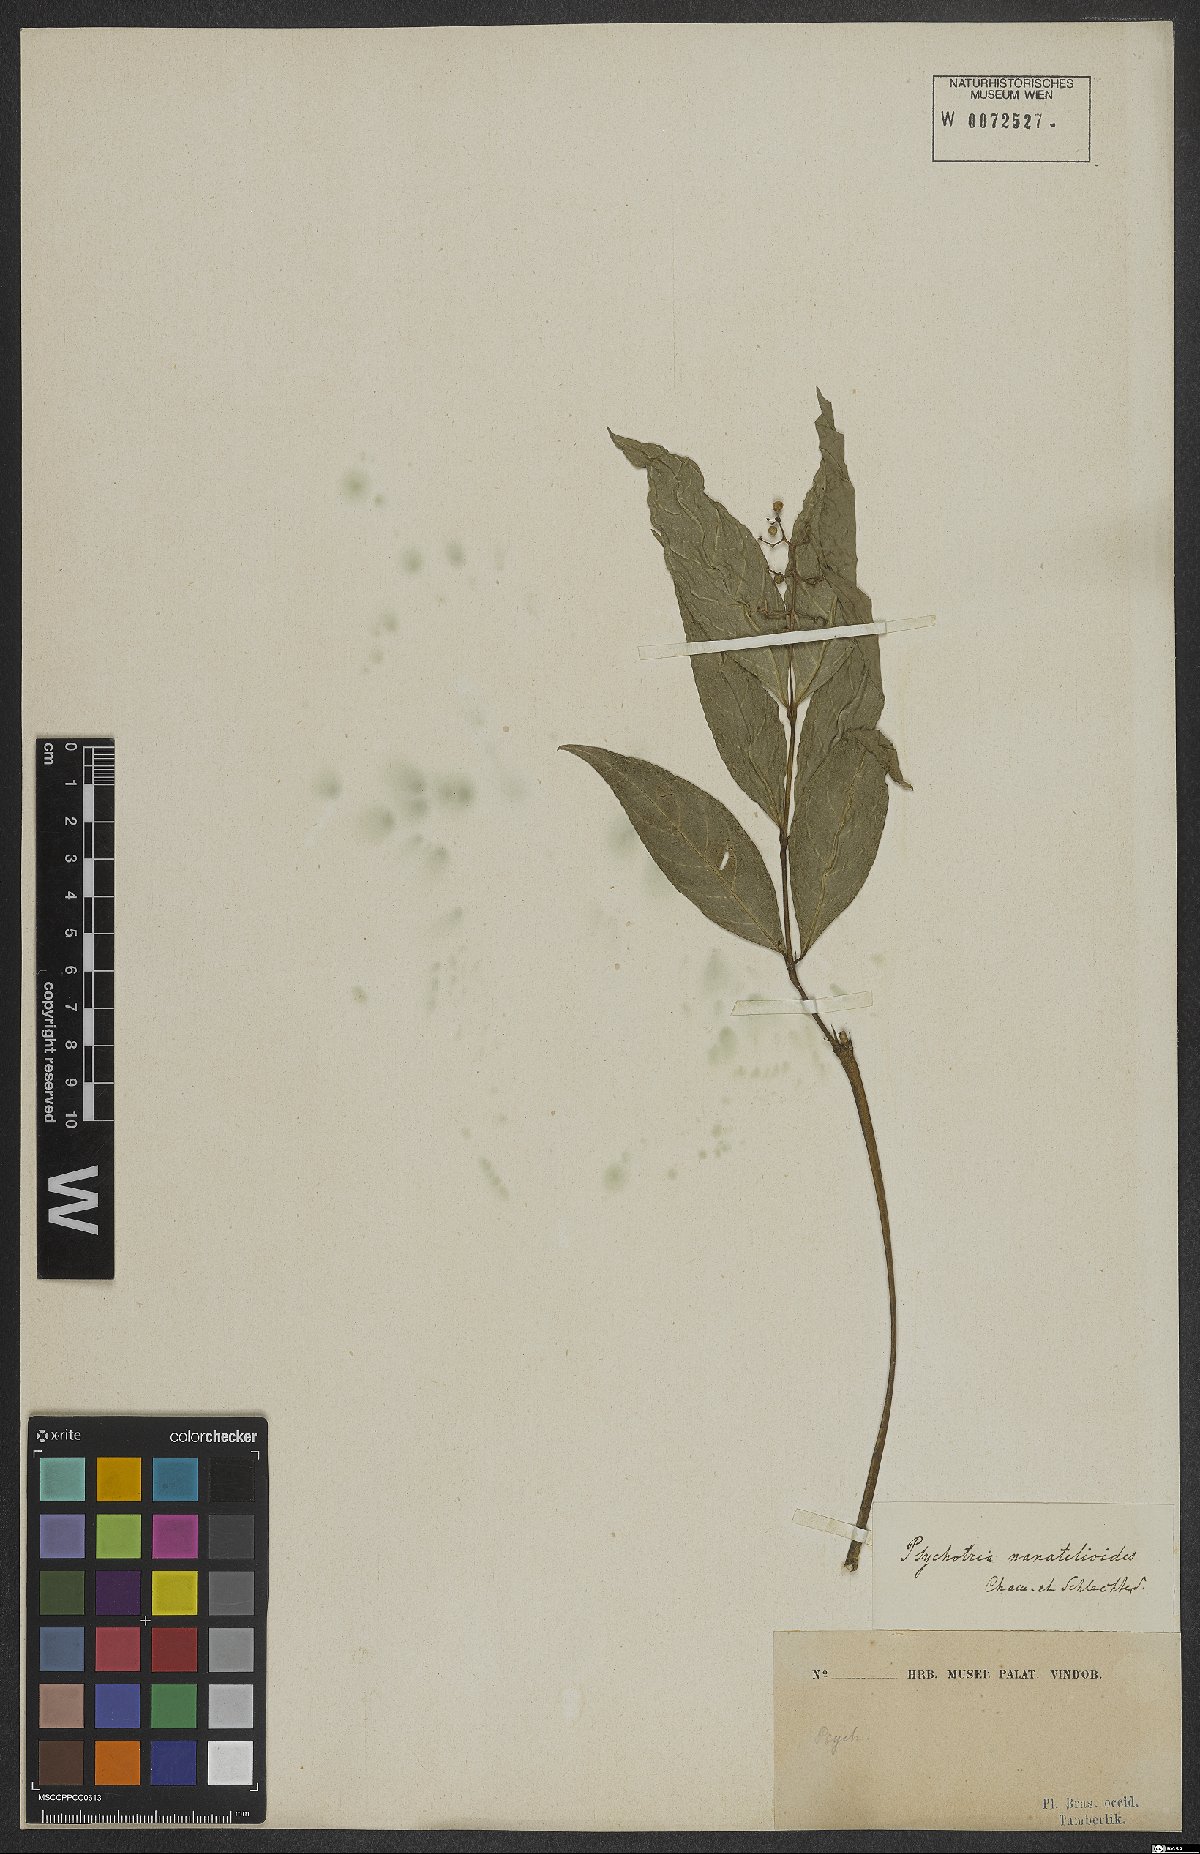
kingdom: Plantae
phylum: Tracheophyta
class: Magnoliopsida
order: Gentianales
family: Rubiaceae
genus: Palicourea
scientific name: Palicourea patens
